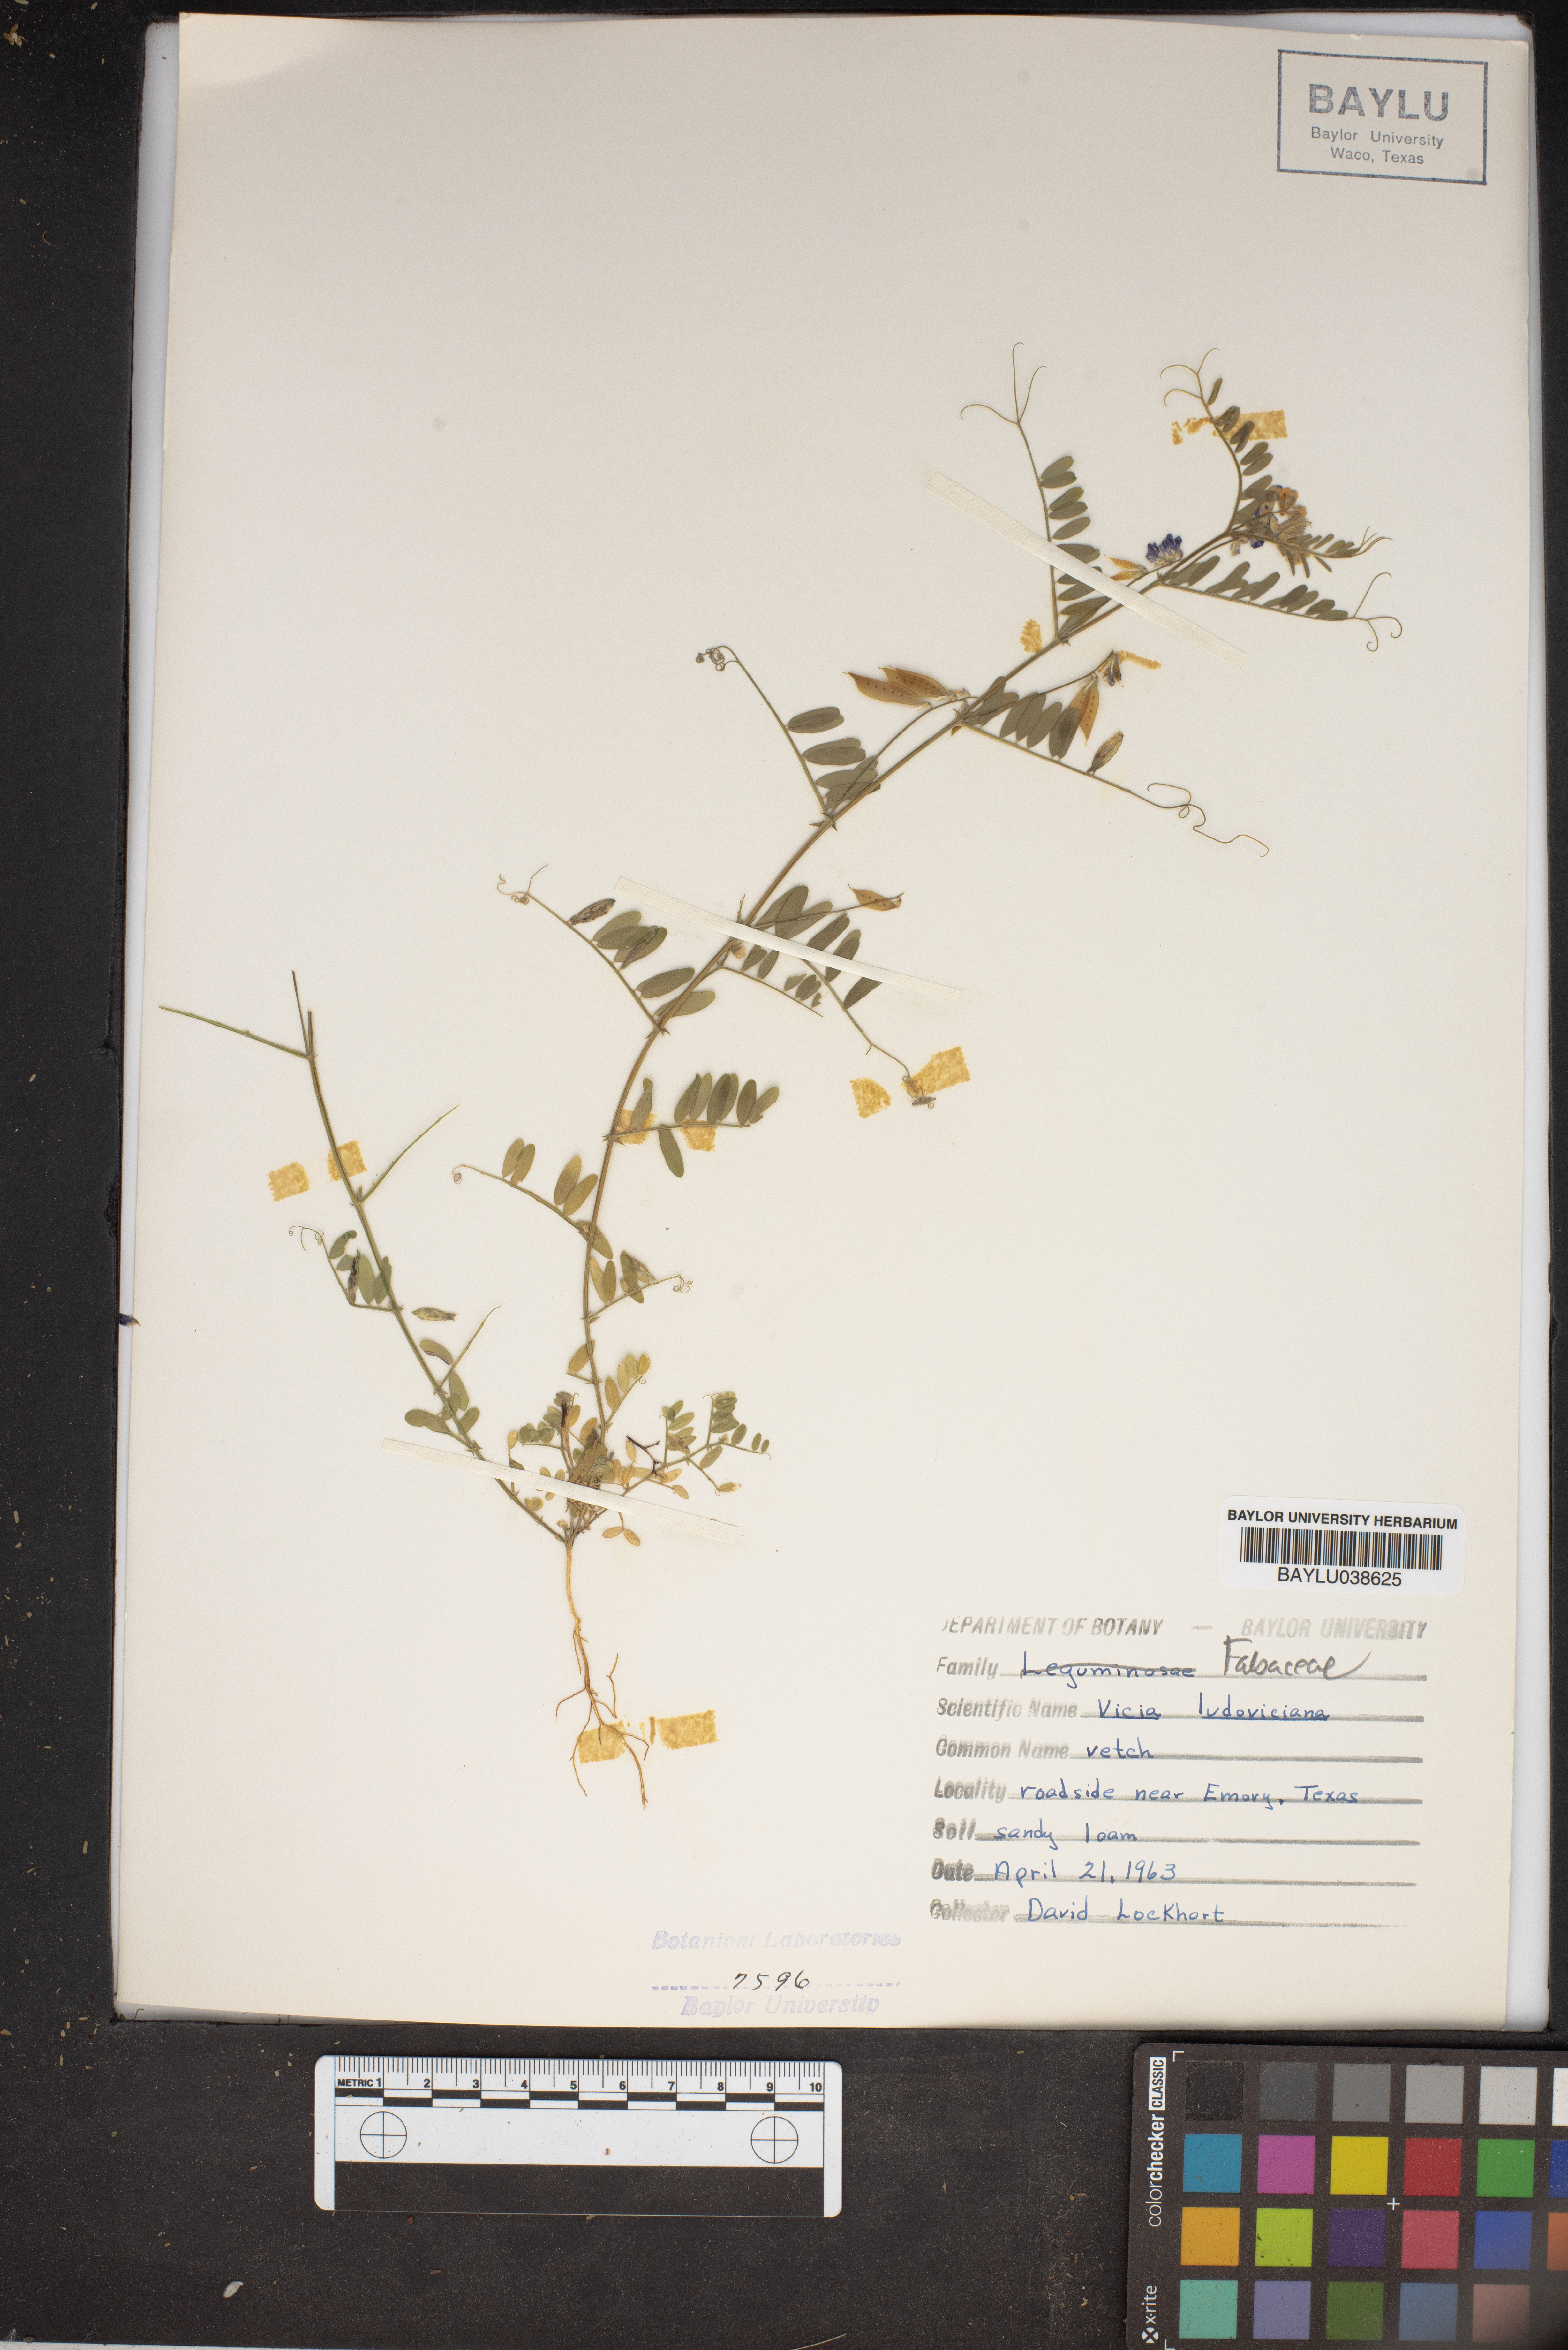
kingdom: Plantae
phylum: Tracheophyta
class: Magnoliopsida
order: Fabales
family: Fabaceae
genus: Vicia
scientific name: Vicia ludoviciana
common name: Louisiana vetch
